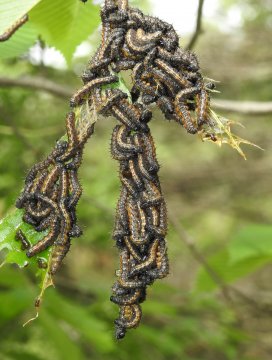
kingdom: Animalia
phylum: Arthropoda
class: Insecta
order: Lepidoptera
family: Nymphalidae
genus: Nymphalis
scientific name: Nymphalis antiopa
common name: Mourning Cloak
